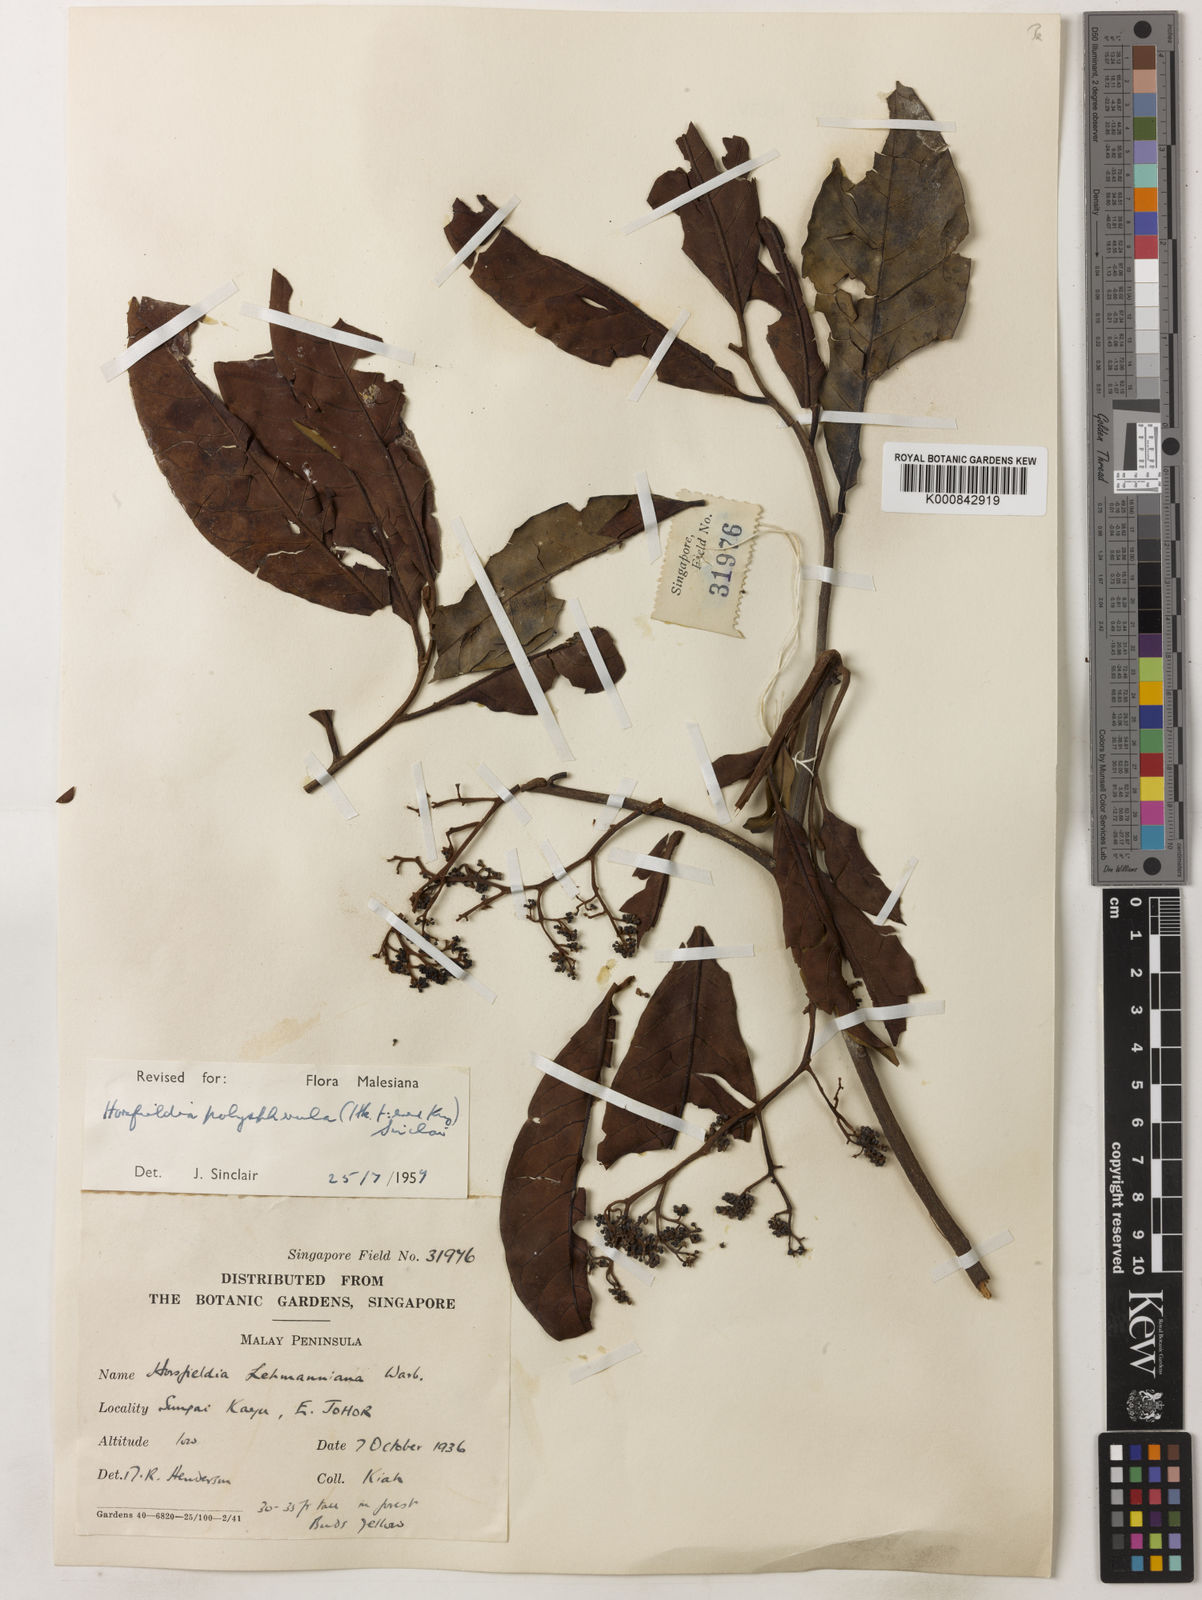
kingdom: Plantae
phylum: Tracheophyta
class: Magnoliopsida
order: Magnoliales
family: Myristicaceae
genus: Horsfieldia
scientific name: Horsfieldia
